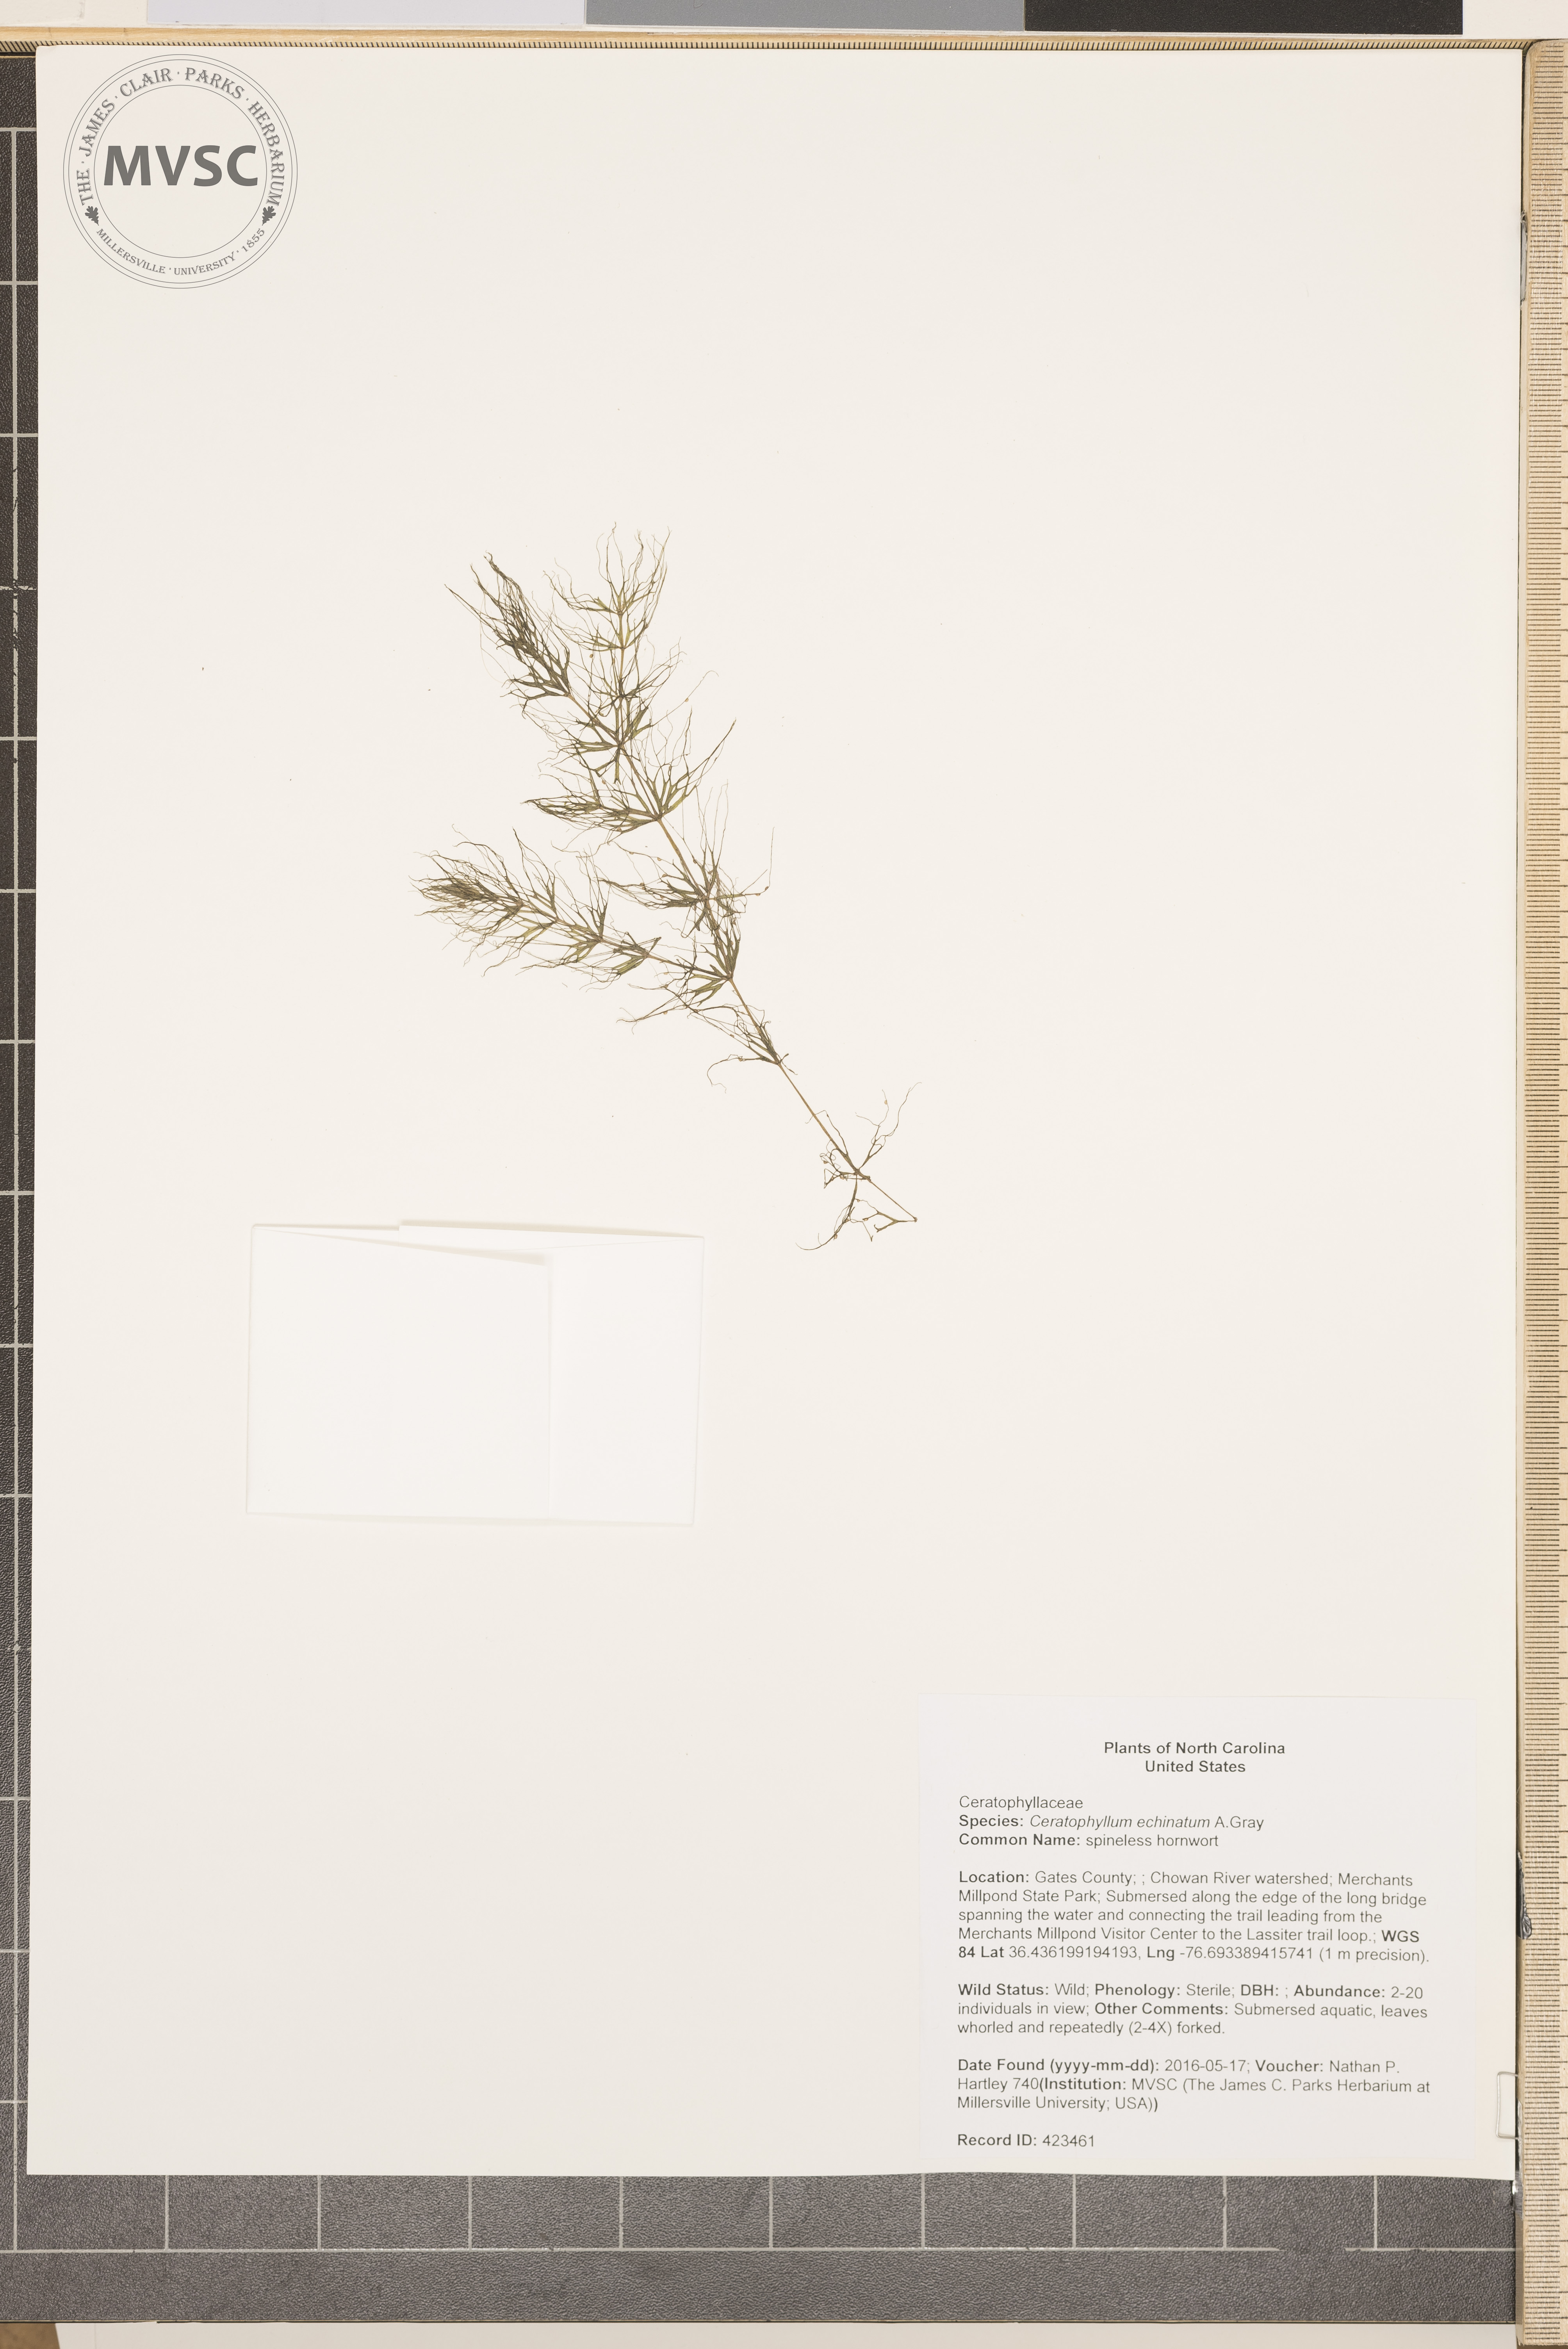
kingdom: Plantae
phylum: Tracheophyta
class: Magnoliopsida
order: Ceratophyllales
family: Ceratophyllaceae
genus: Ceratophyllum
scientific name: Ceratophyllum echinatum
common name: spineless hornwort
